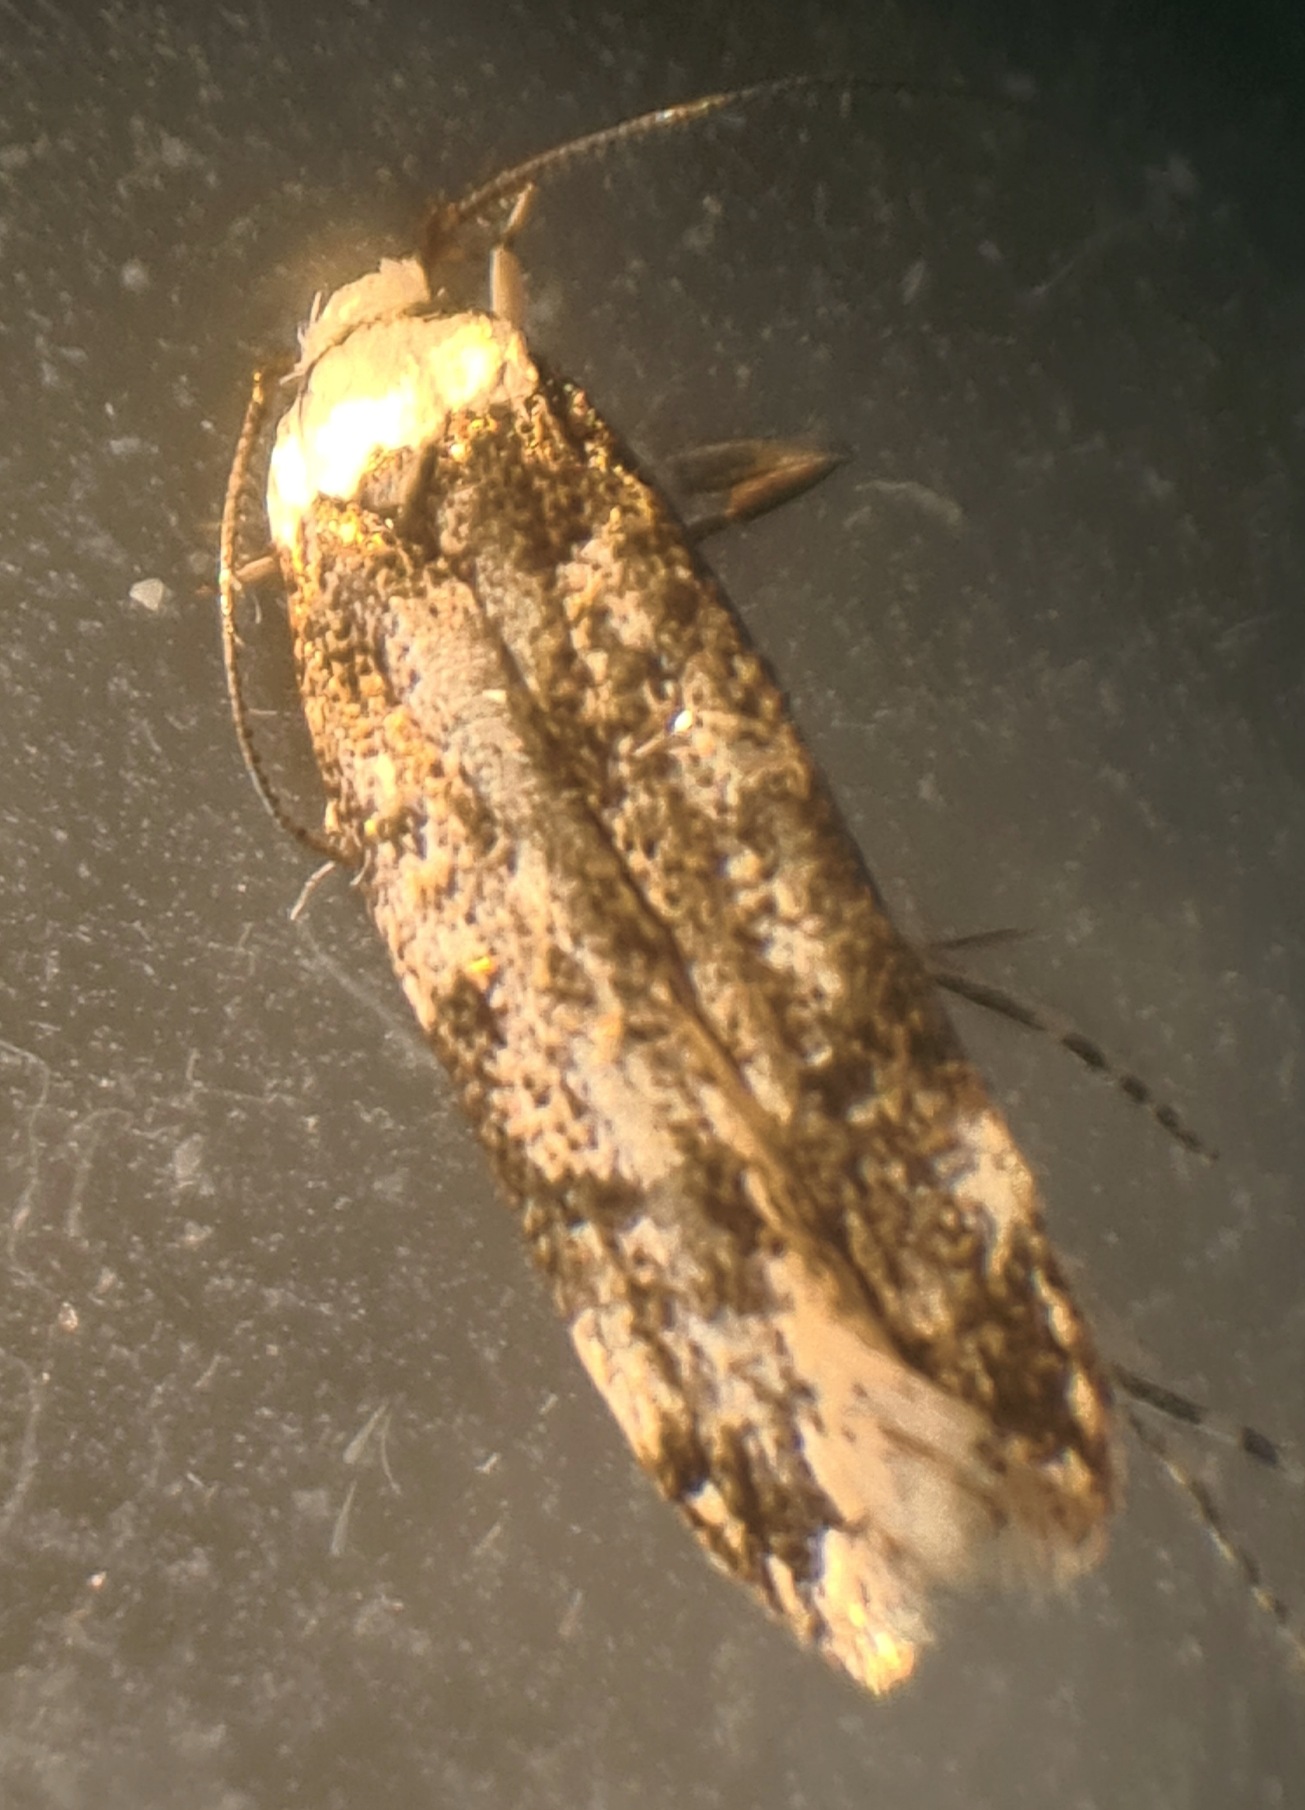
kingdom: Animalia
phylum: Arthropoda
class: Insecta
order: Lepidoptera
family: Oecophoridae
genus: Endrosis
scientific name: Endrosis sarcitrella
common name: Klistermøl
